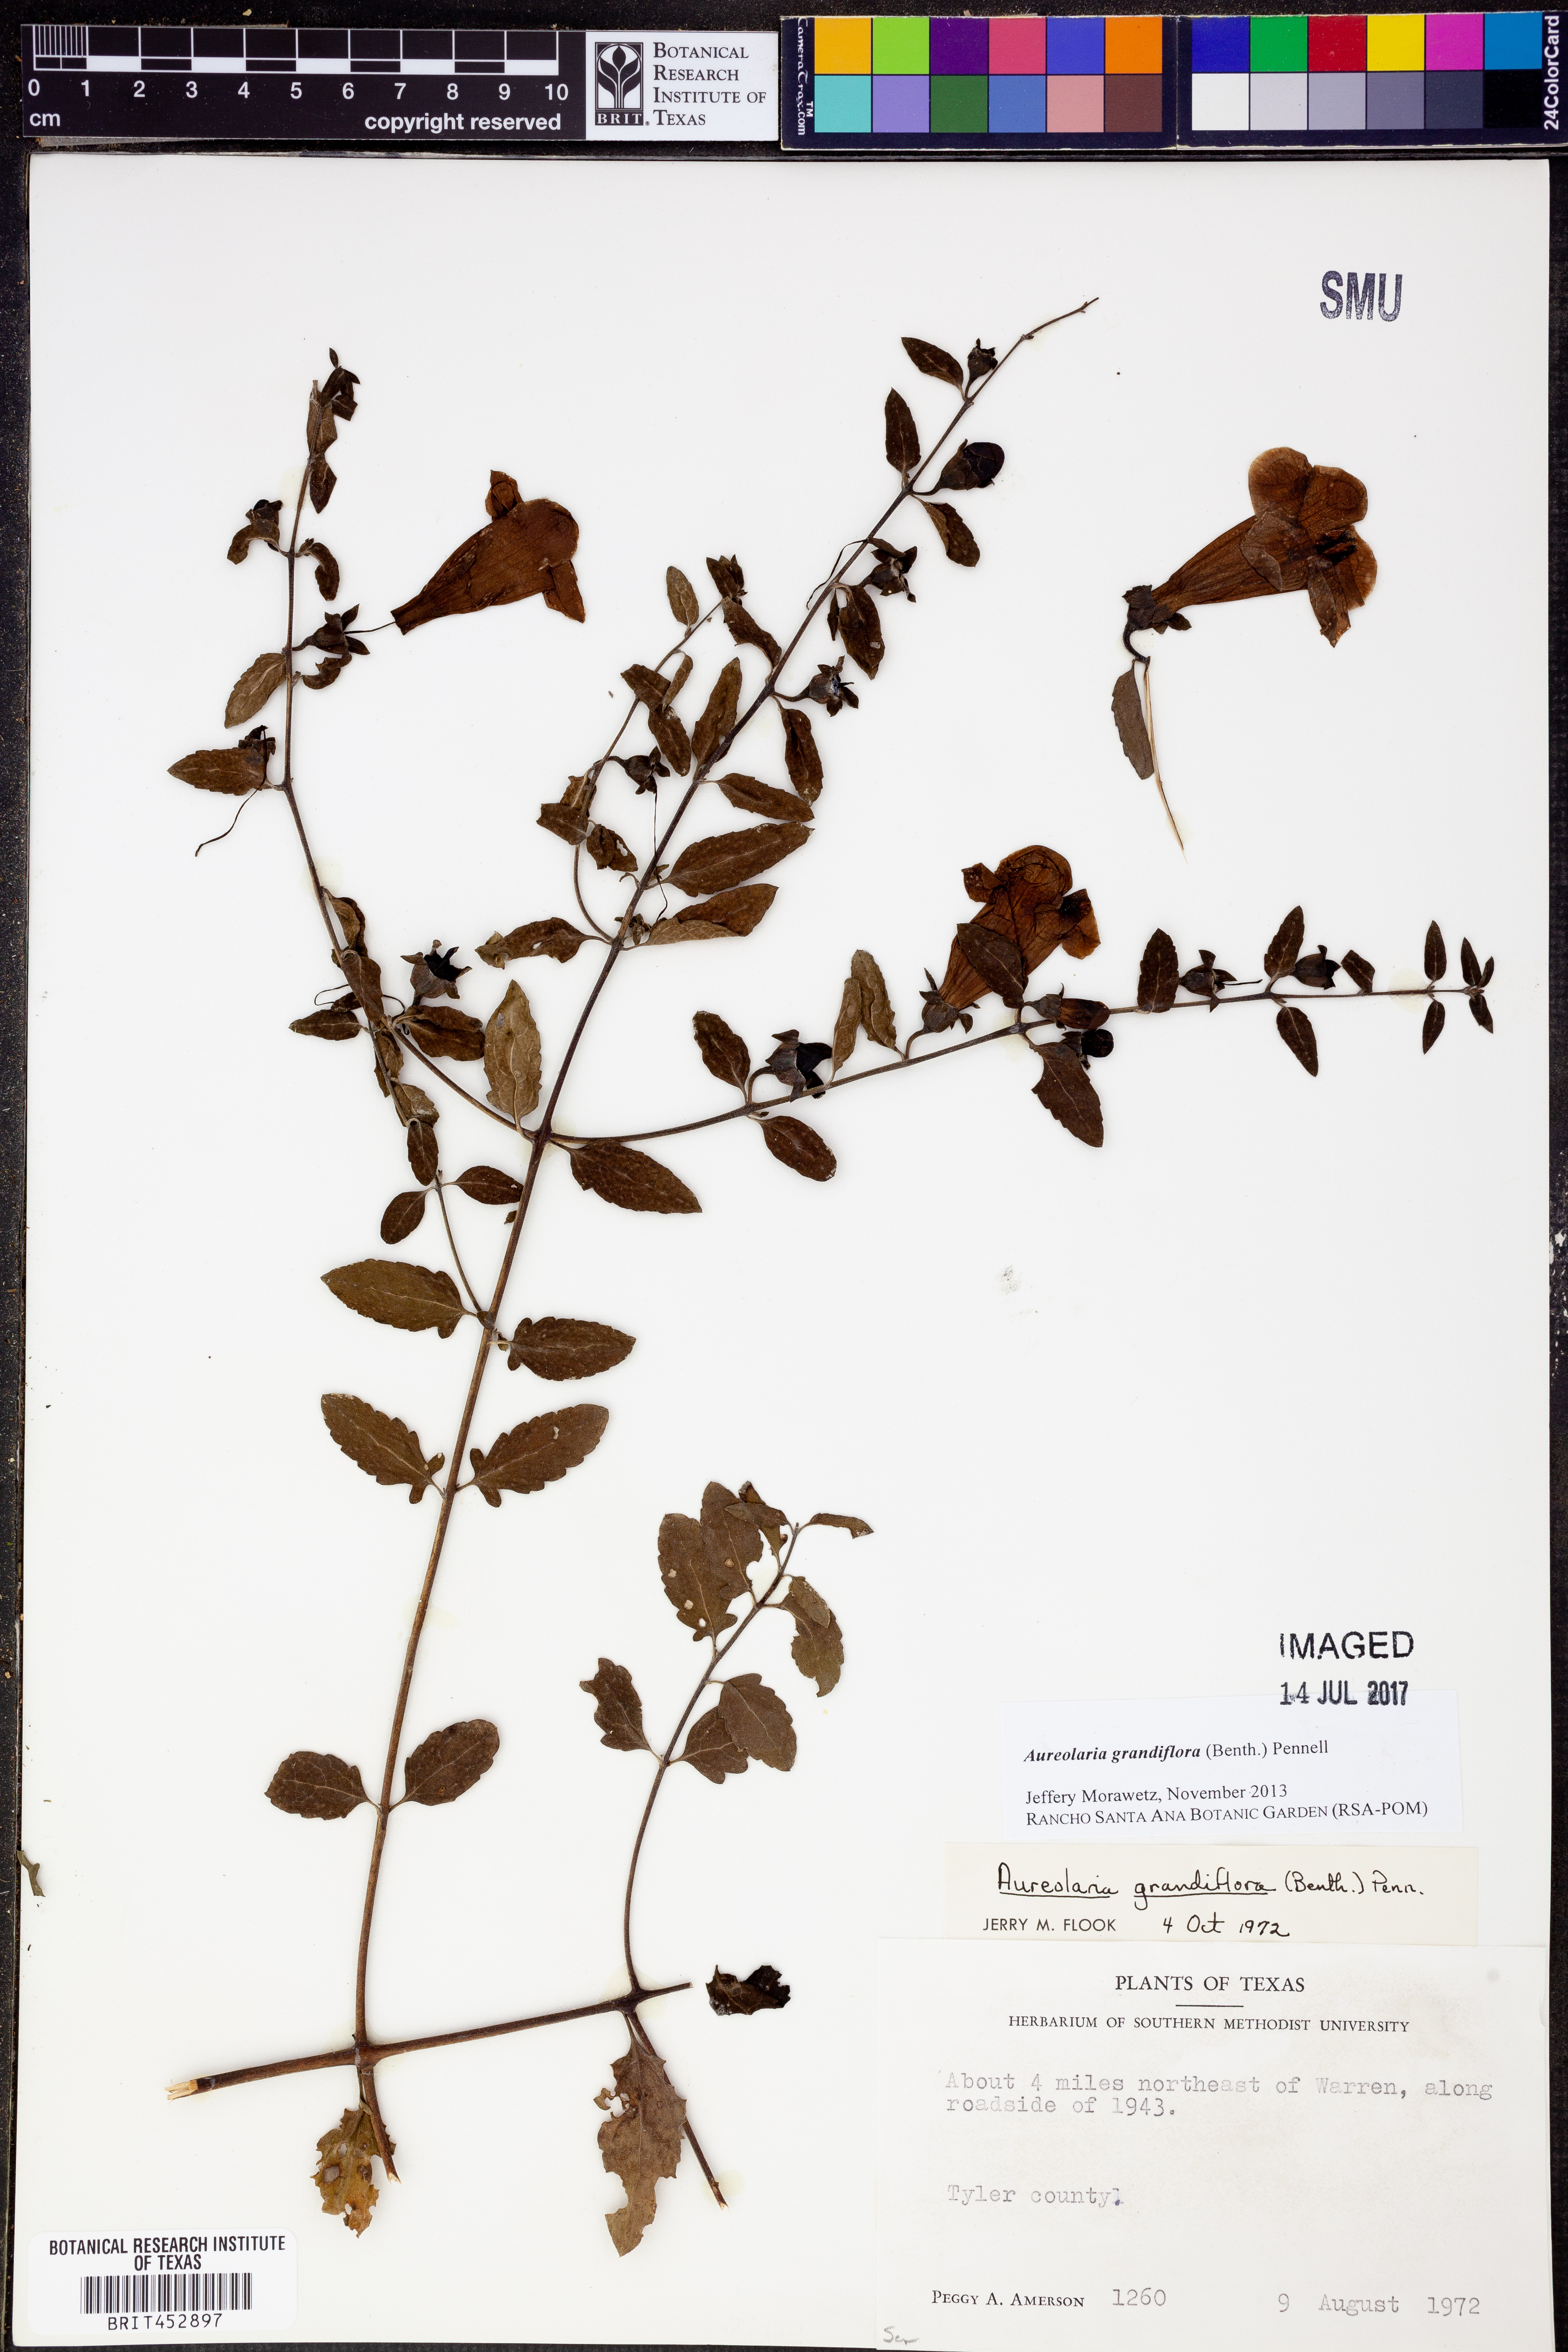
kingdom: Plantae
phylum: Tracheophyta
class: Magnoliopsida
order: Lamiales
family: Orobanchaceae
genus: Aureolaria
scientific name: Aureolaria grandiflora
